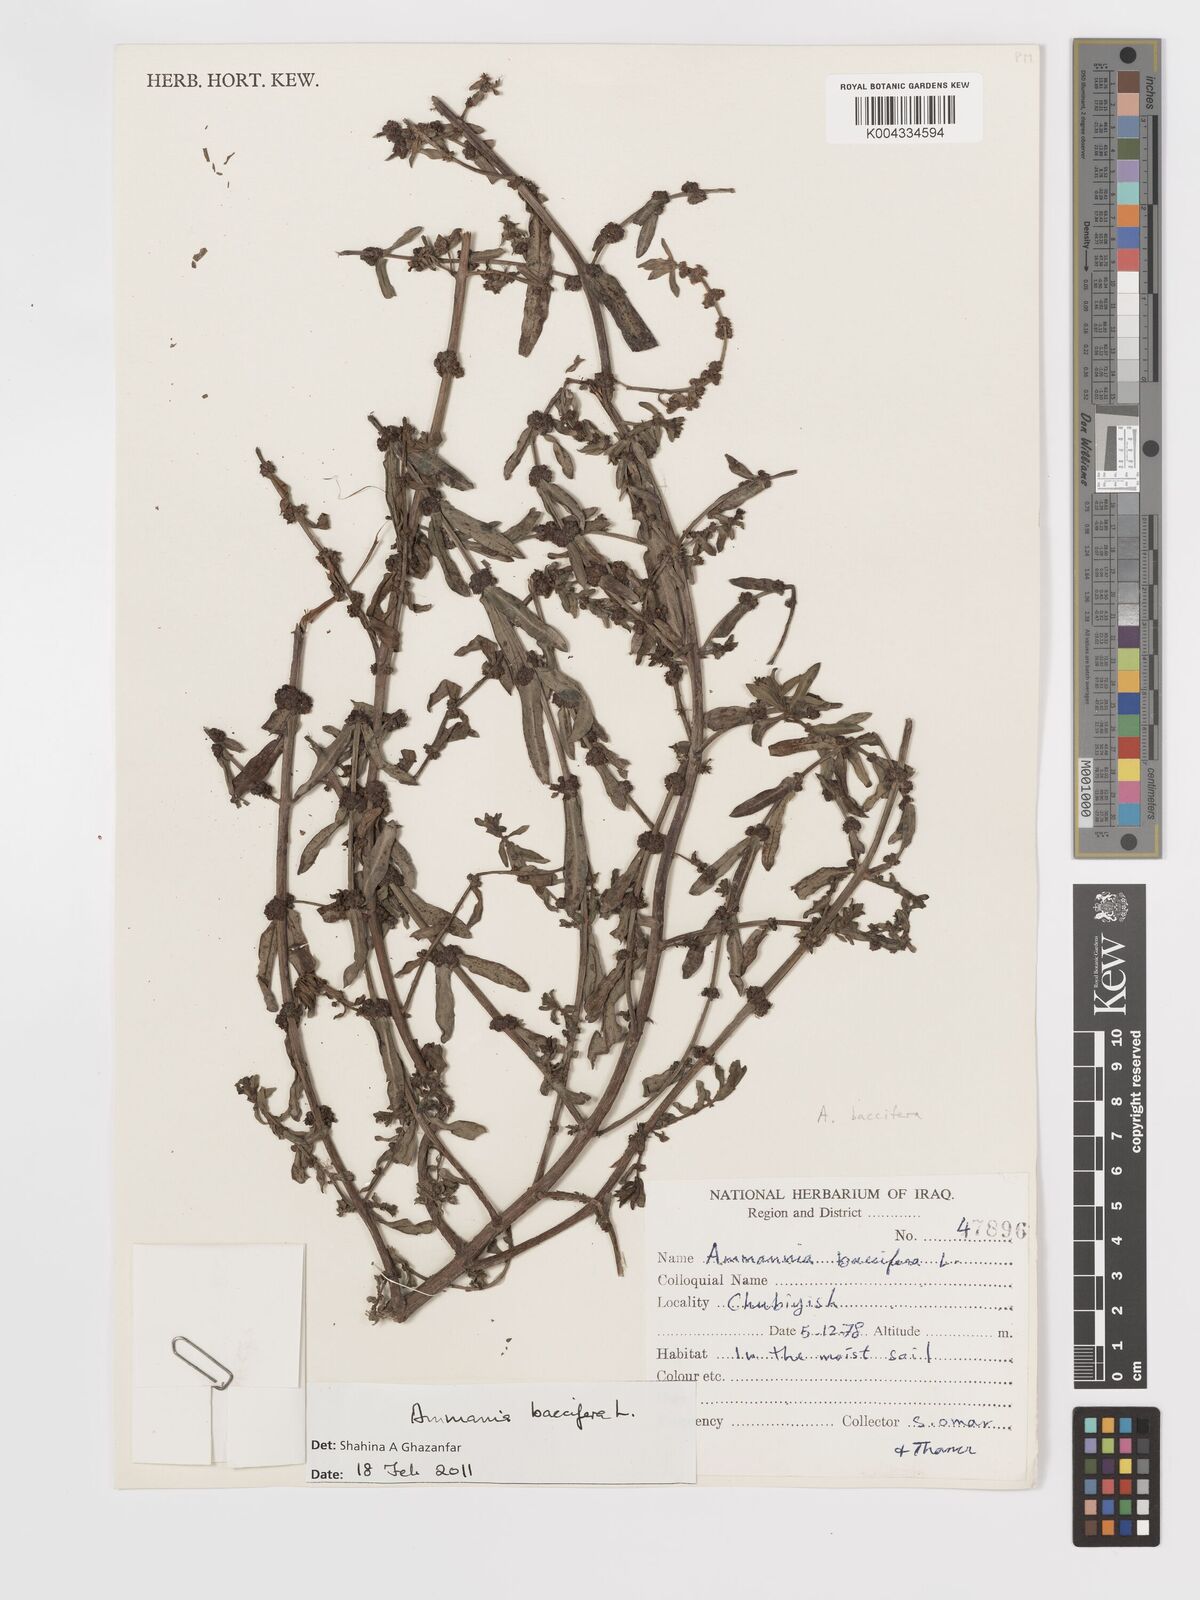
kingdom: Plantae
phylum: Tracheophyta
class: Magnoliopsida
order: Myrtales
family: Lythraceae
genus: Ammannia
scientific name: Ammannia baccifera
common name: Blistering ammania
